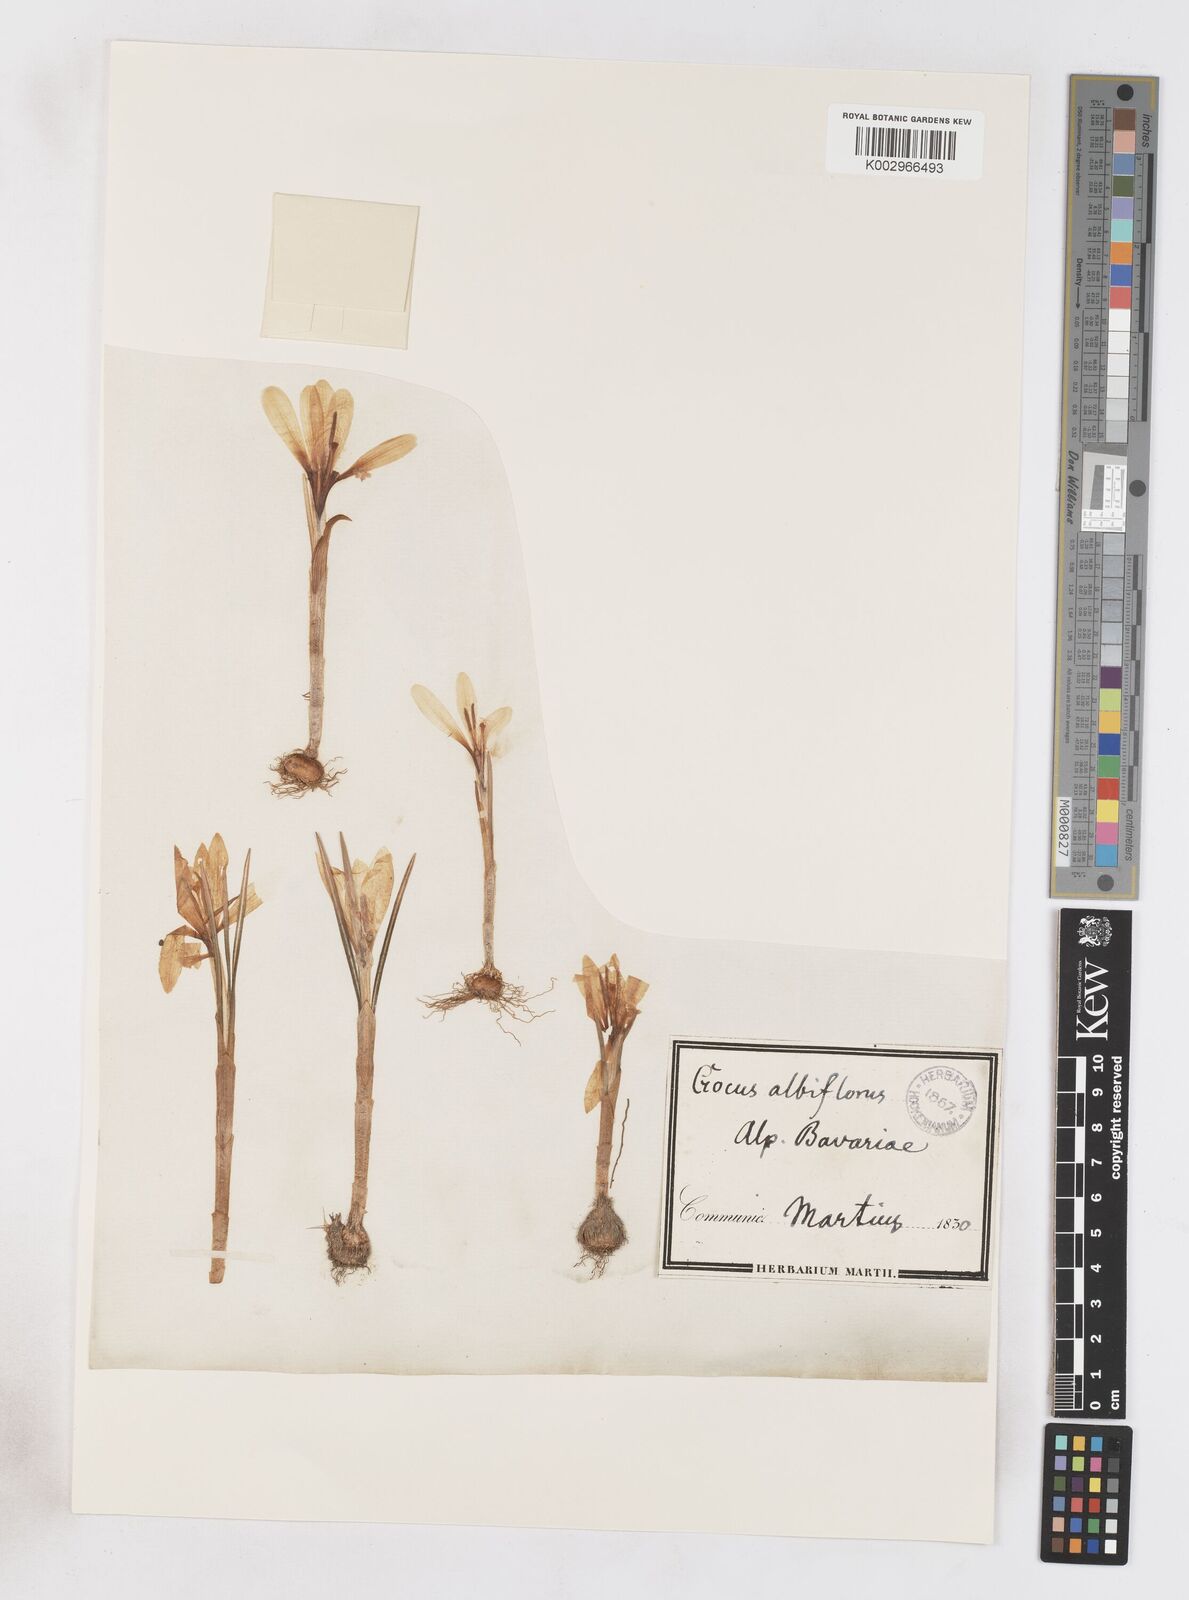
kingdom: Plantae
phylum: Tracheophyta
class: Liliopsida
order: Asparagales
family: Iridaceae
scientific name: Iridaceae
